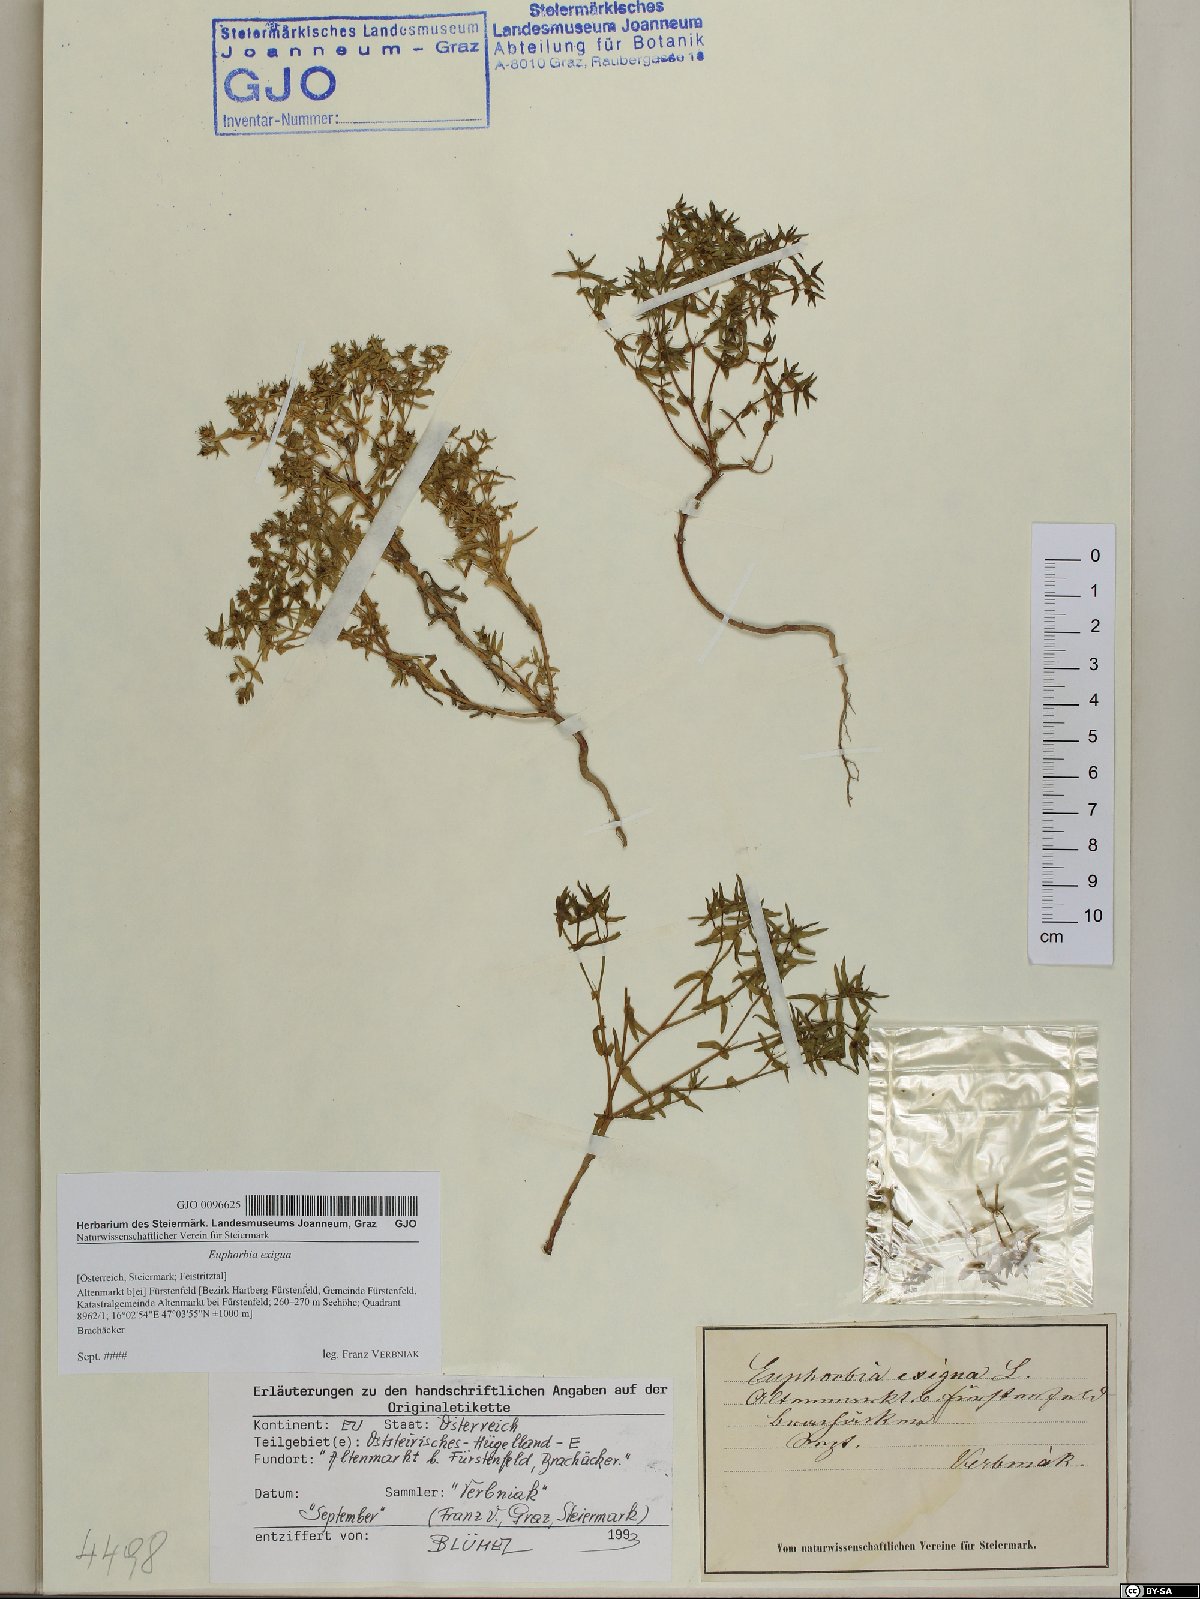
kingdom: Plantae
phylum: Tracheophyta
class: Magnoliopsida
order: Malpighiales
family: Euphorbiaceae
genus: Euphorbia
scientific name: Euphorbia exigua
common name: Dwarf spurge
